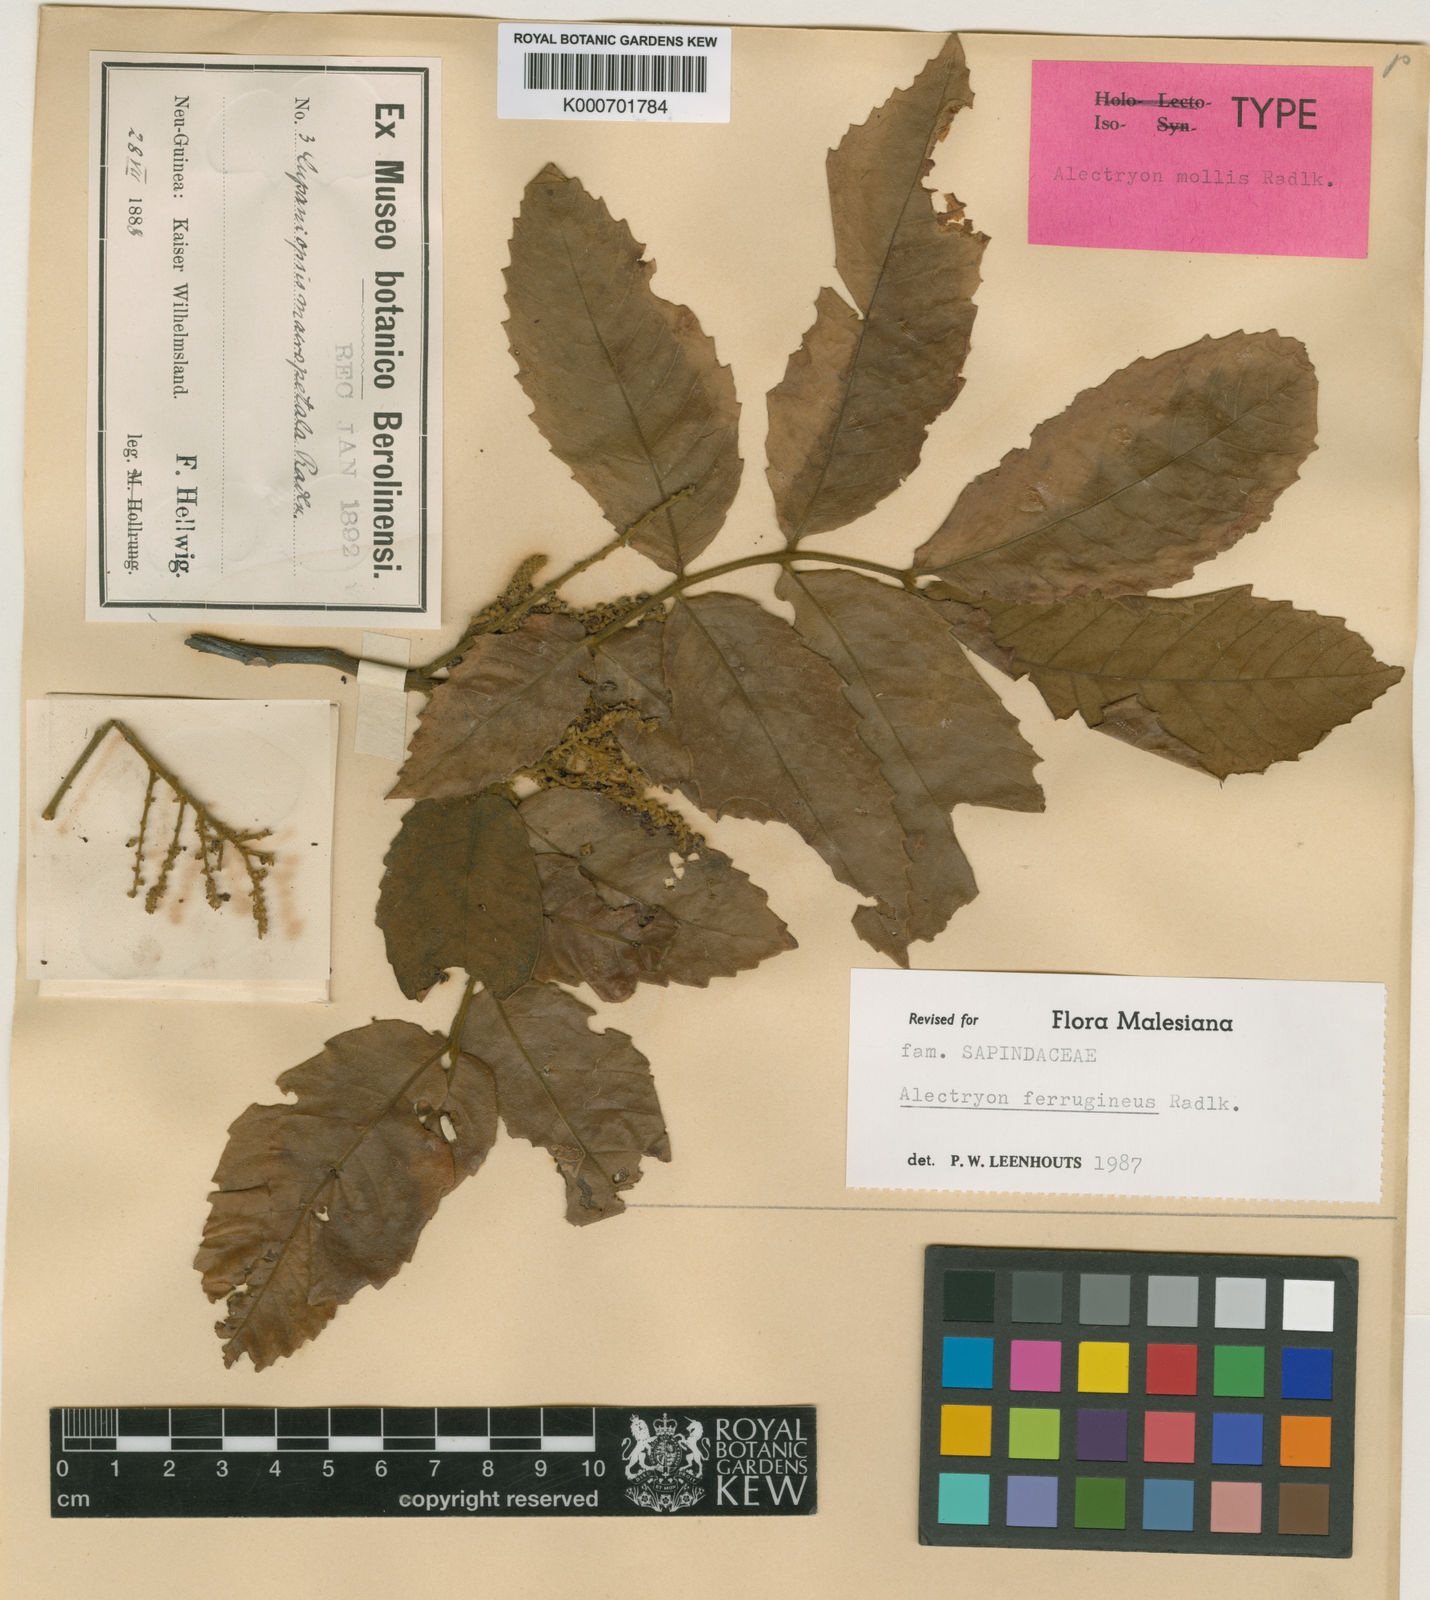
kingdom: Plantae
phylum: Tracheophyta
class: Magnoliopsida
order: Sapindales
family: Sapindaceae
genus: Alectryon
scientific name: Alectryon ferrugineus
